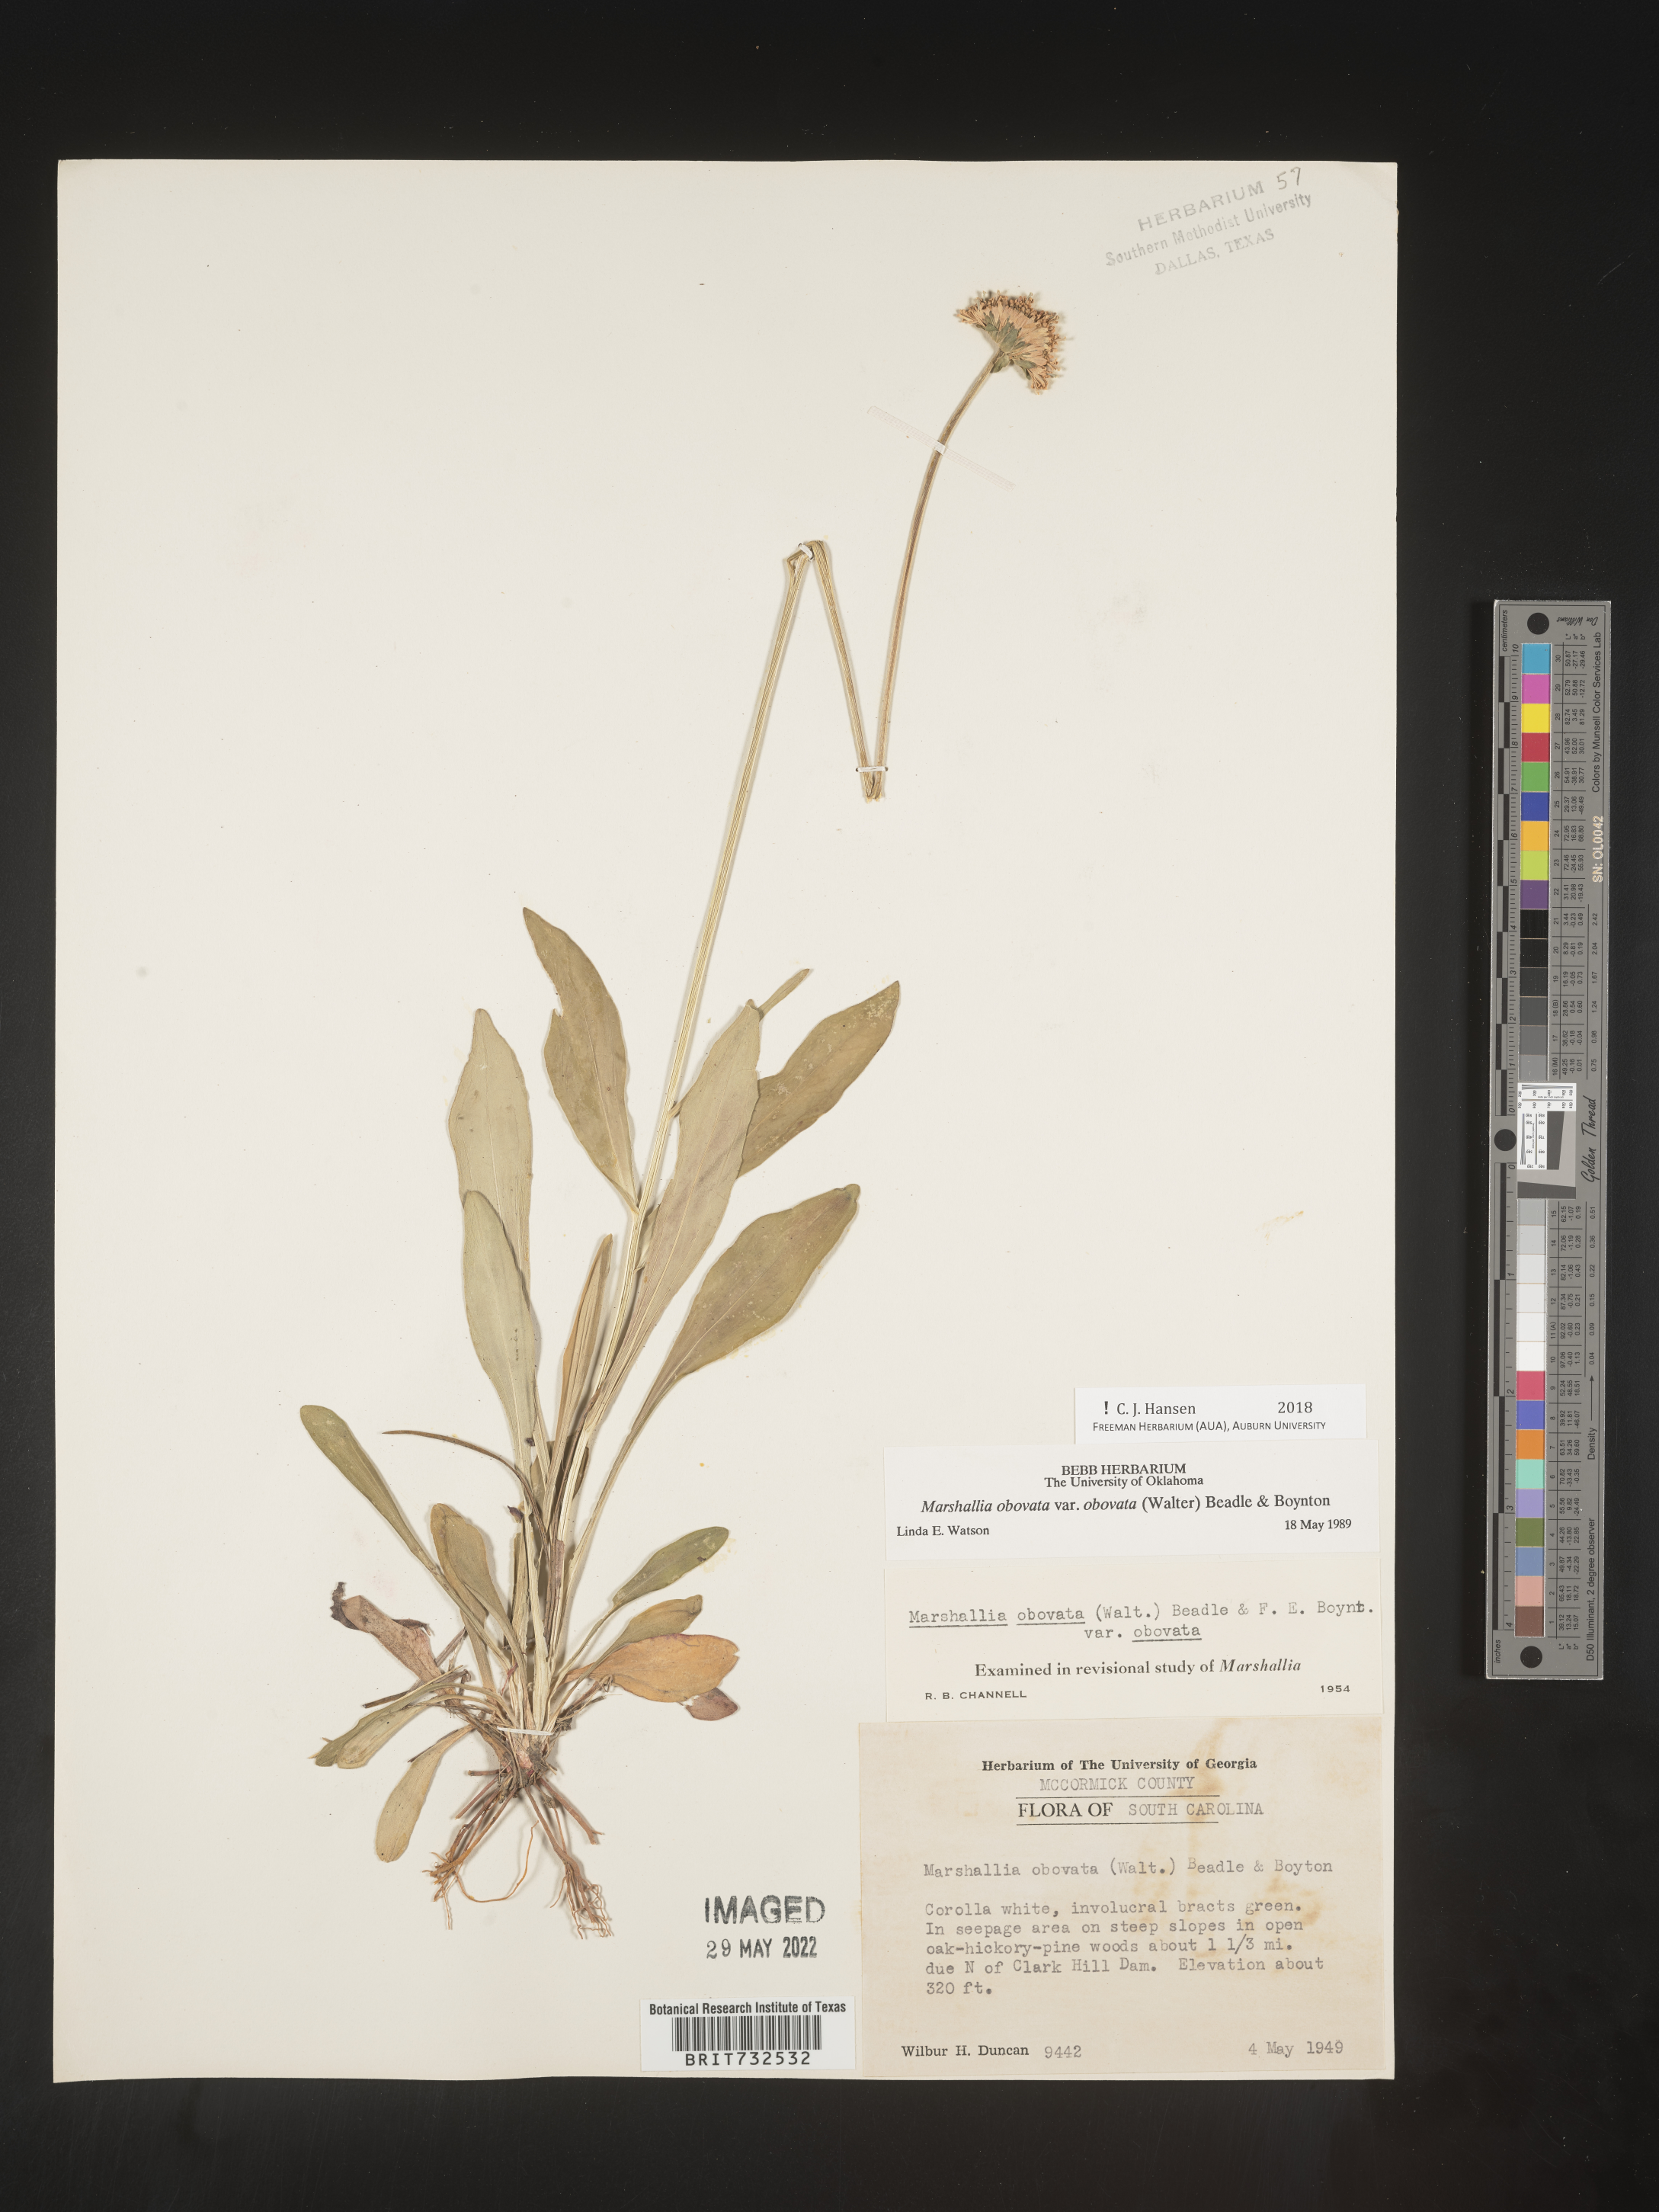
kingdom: Plantae
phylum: Tracheophyta
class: Magnoliopsida
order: Asterales
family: Asteraceae
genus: Marshallia
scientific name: Marshallia obovata
